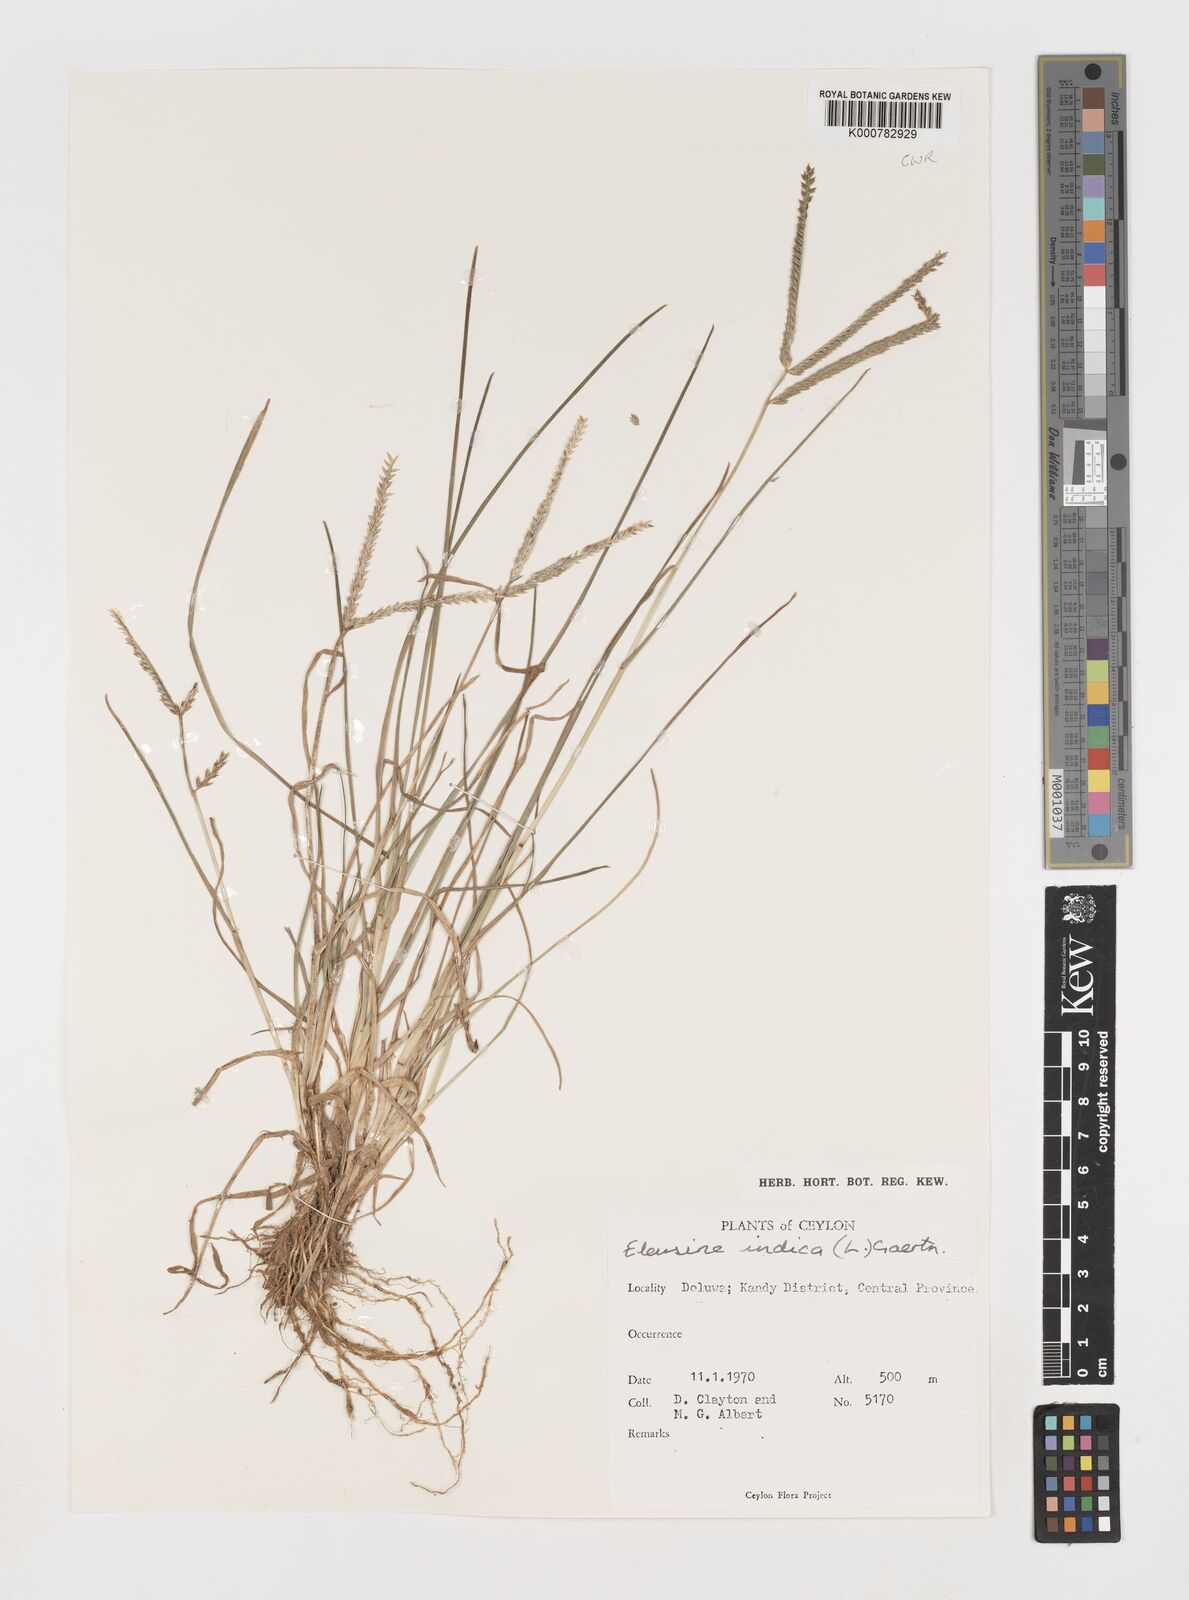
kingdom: Plantae
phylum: Tracheophyta
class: Liliopsida
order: Poales
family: Poaceae
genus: Eleusine
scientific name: Eleusine indica
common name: Yard-grass
